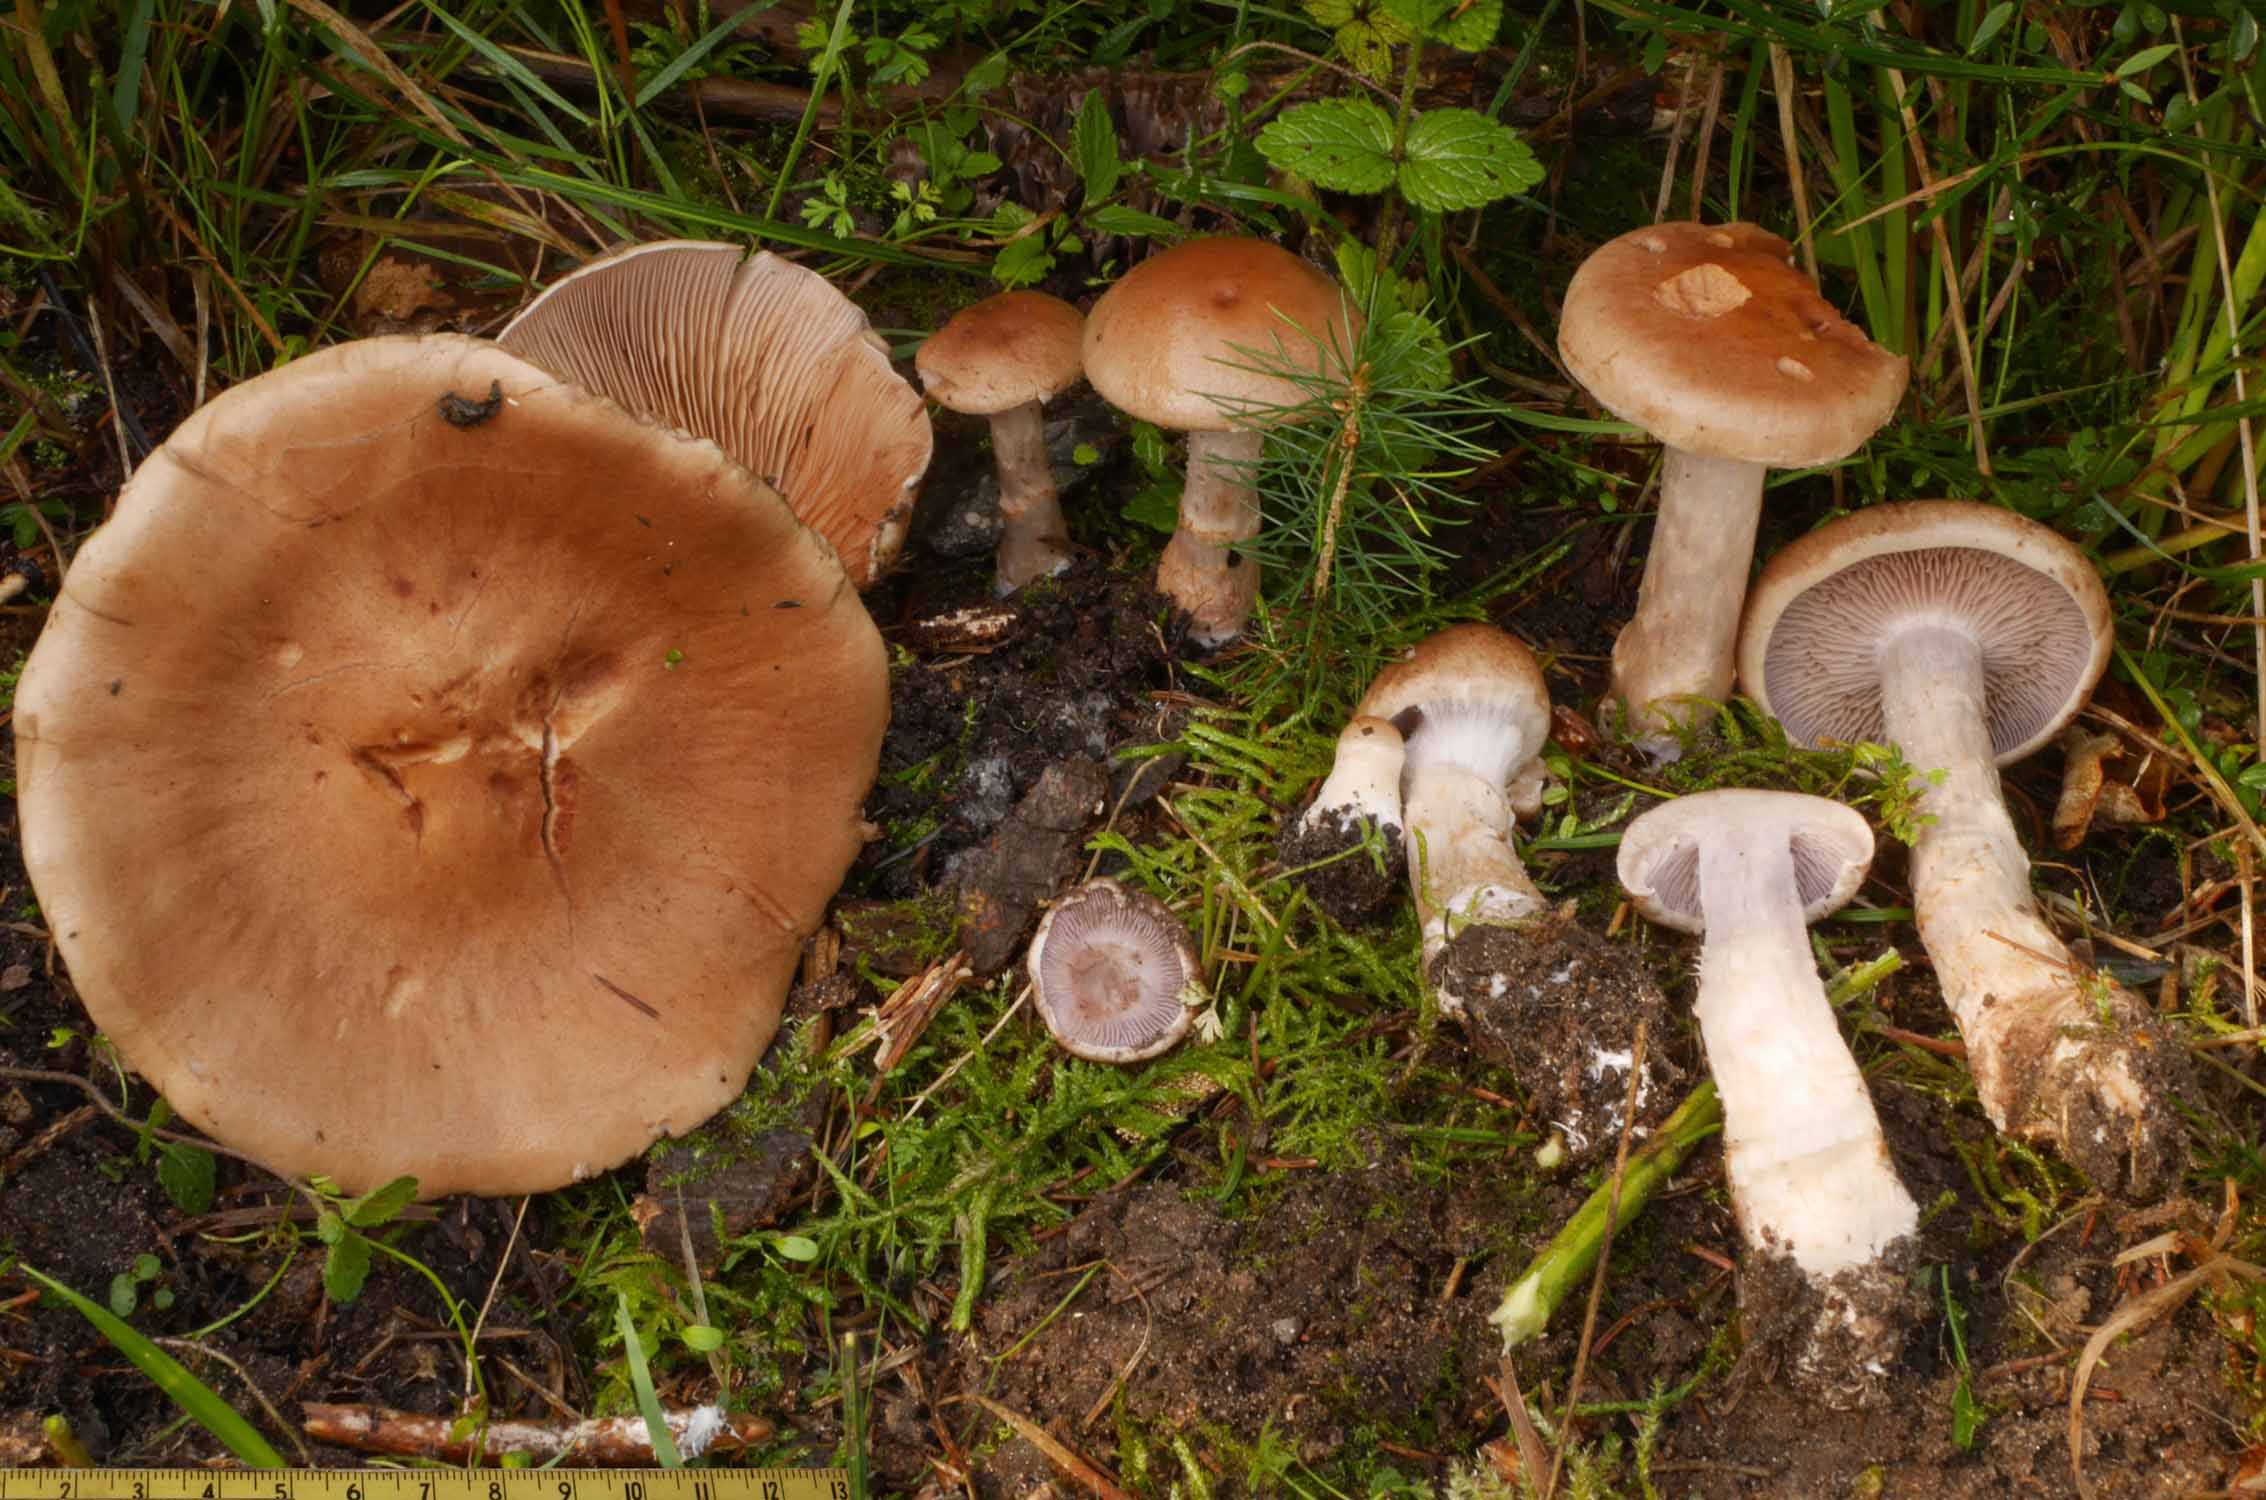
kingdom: Fungi
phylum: Basidiomycota
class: Agaricomycetes
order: Agaricales
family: Cortinariaceae
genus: Cortinarius
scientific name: Cortinarius caninus
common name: gran-slørhat
